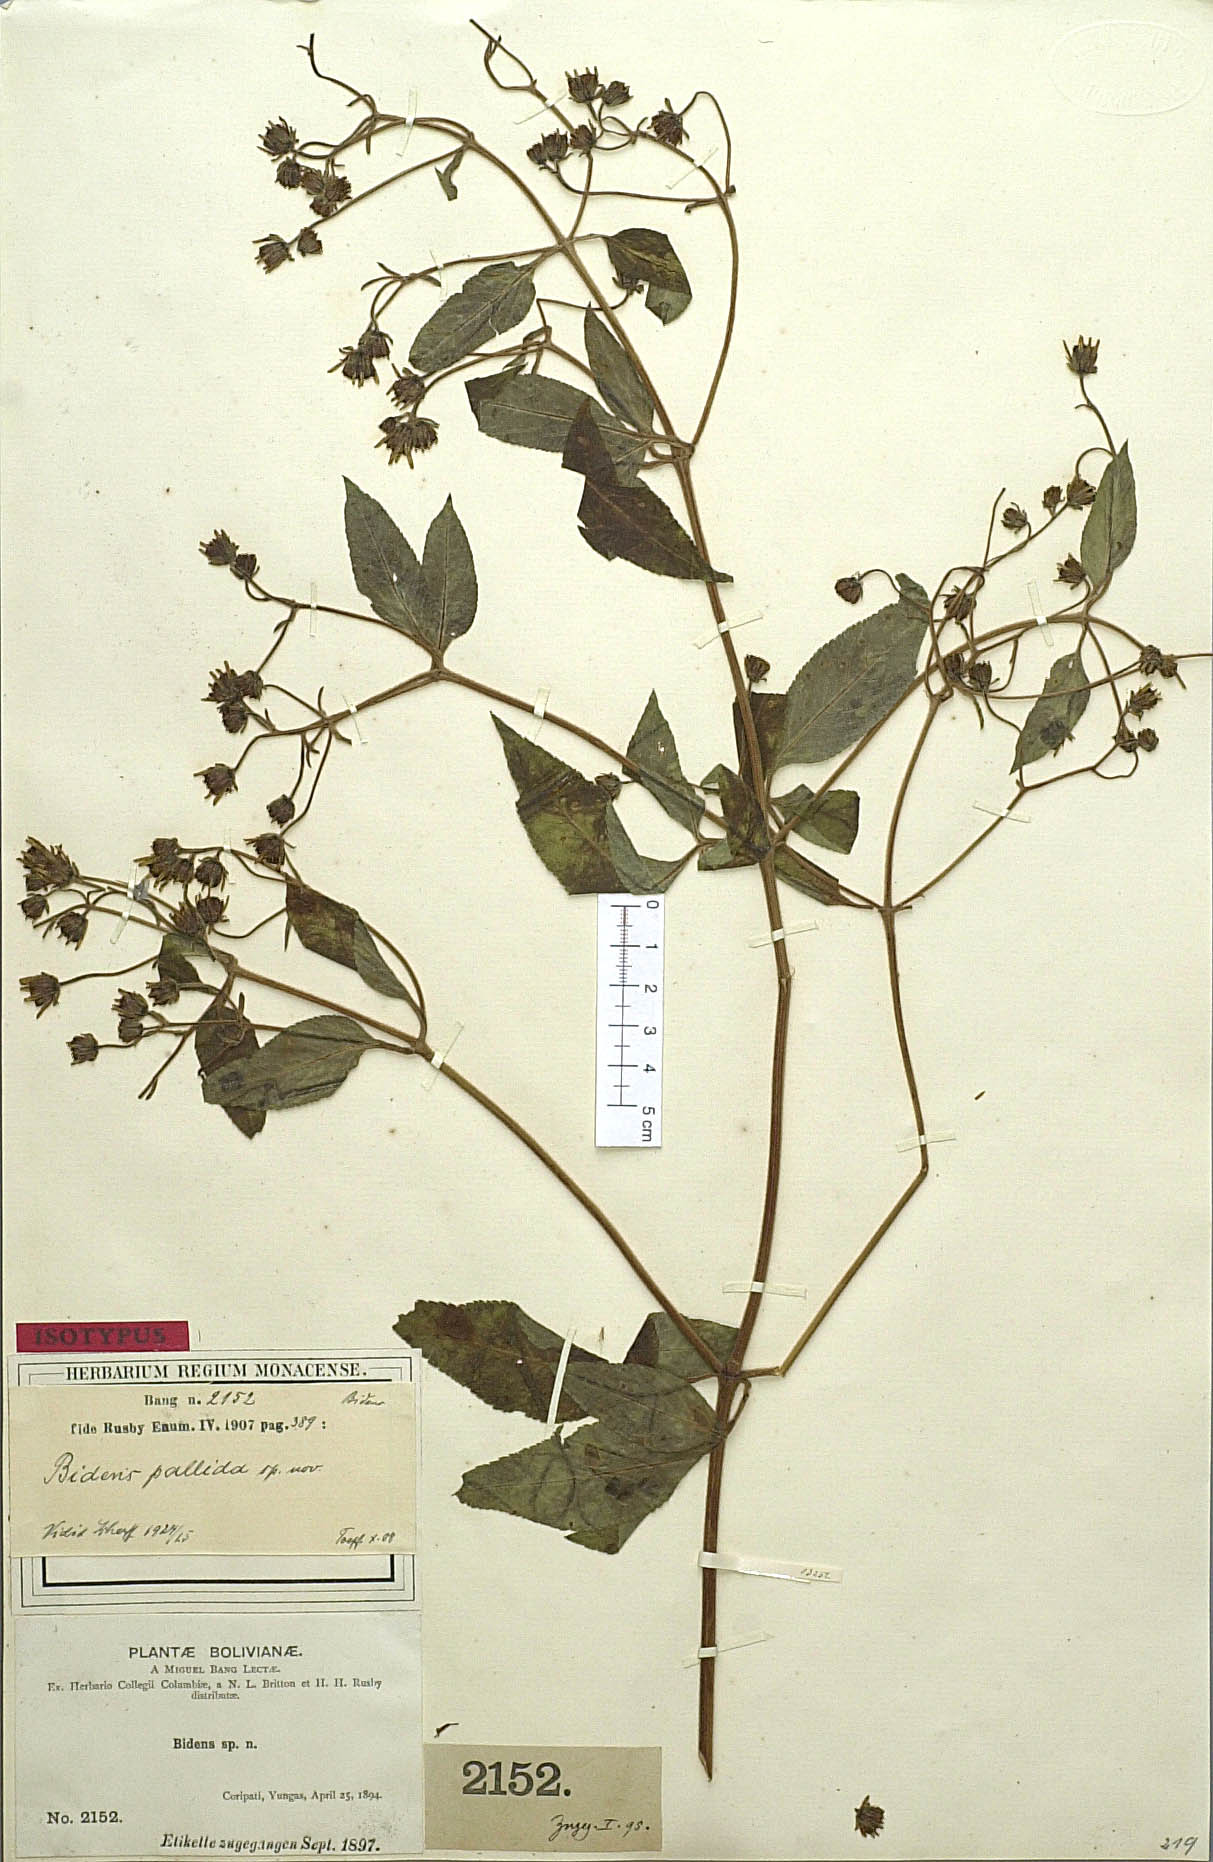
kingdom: Plantae
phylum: Tracheophyta
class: Magnoliopsida
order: Asterales
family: Asteraceae
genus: Bidens
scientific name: Bidens segetum
